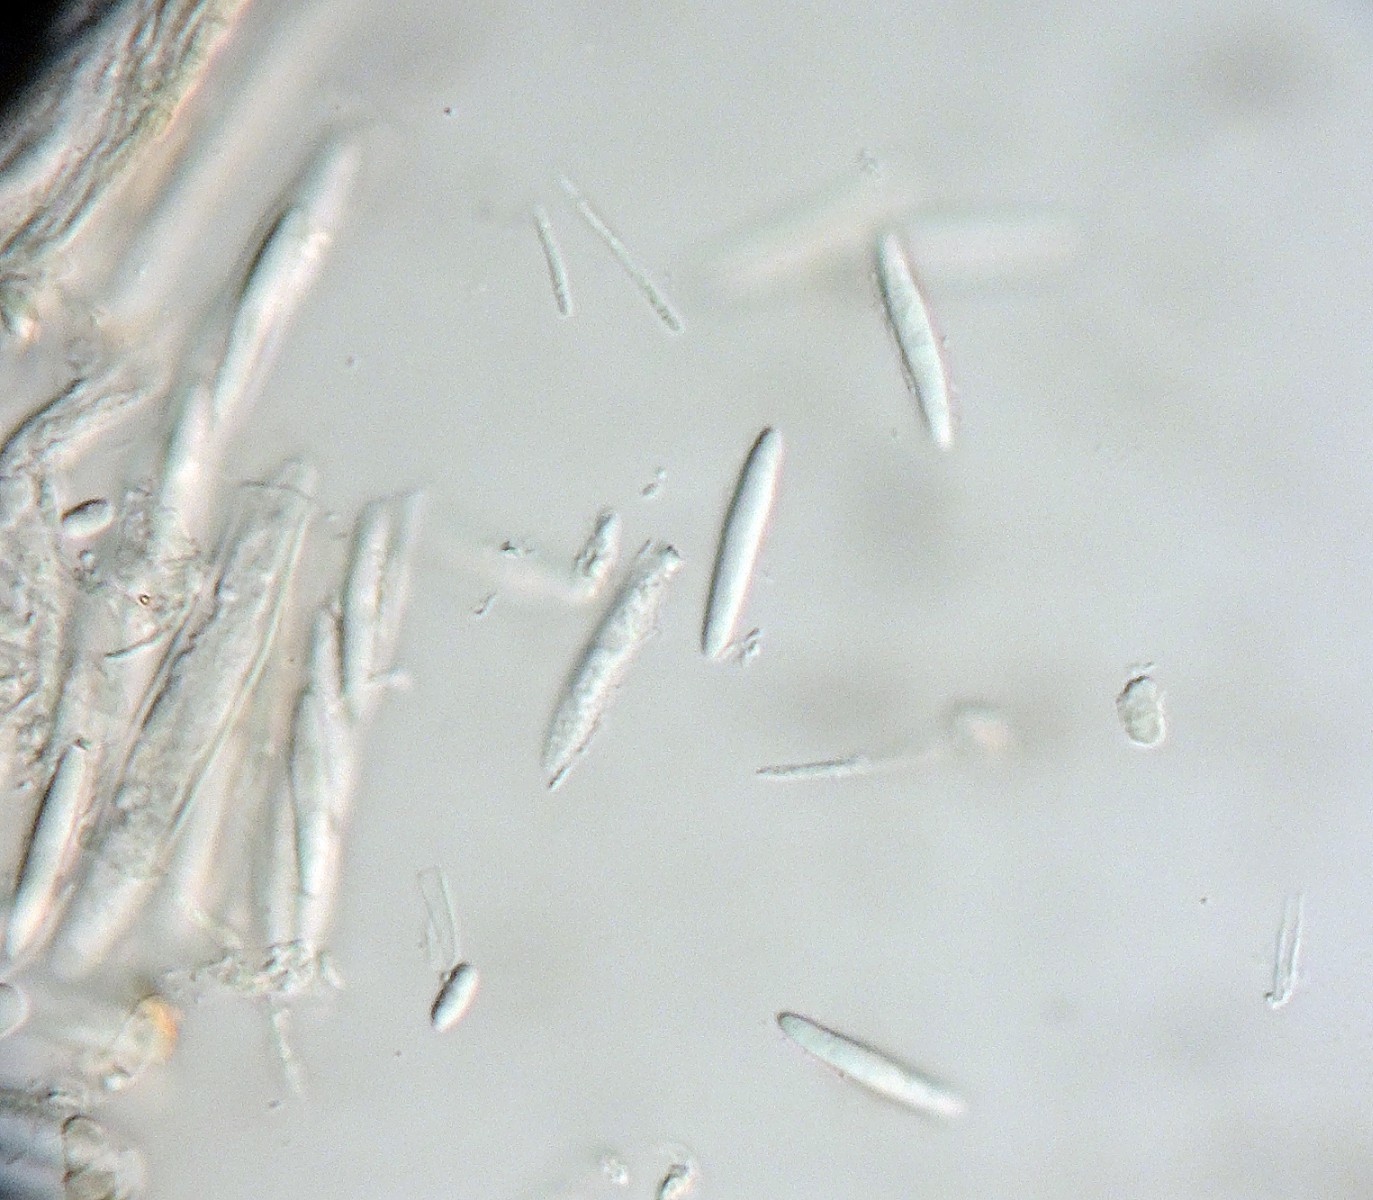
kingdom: Fungi
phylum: Ascomycota
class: Leotiomycetes
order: Helotiales
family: Helotiaceae
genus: Hymenoscyphus
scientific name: Hymenoscyphus menthae
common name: eng-stilkskive
